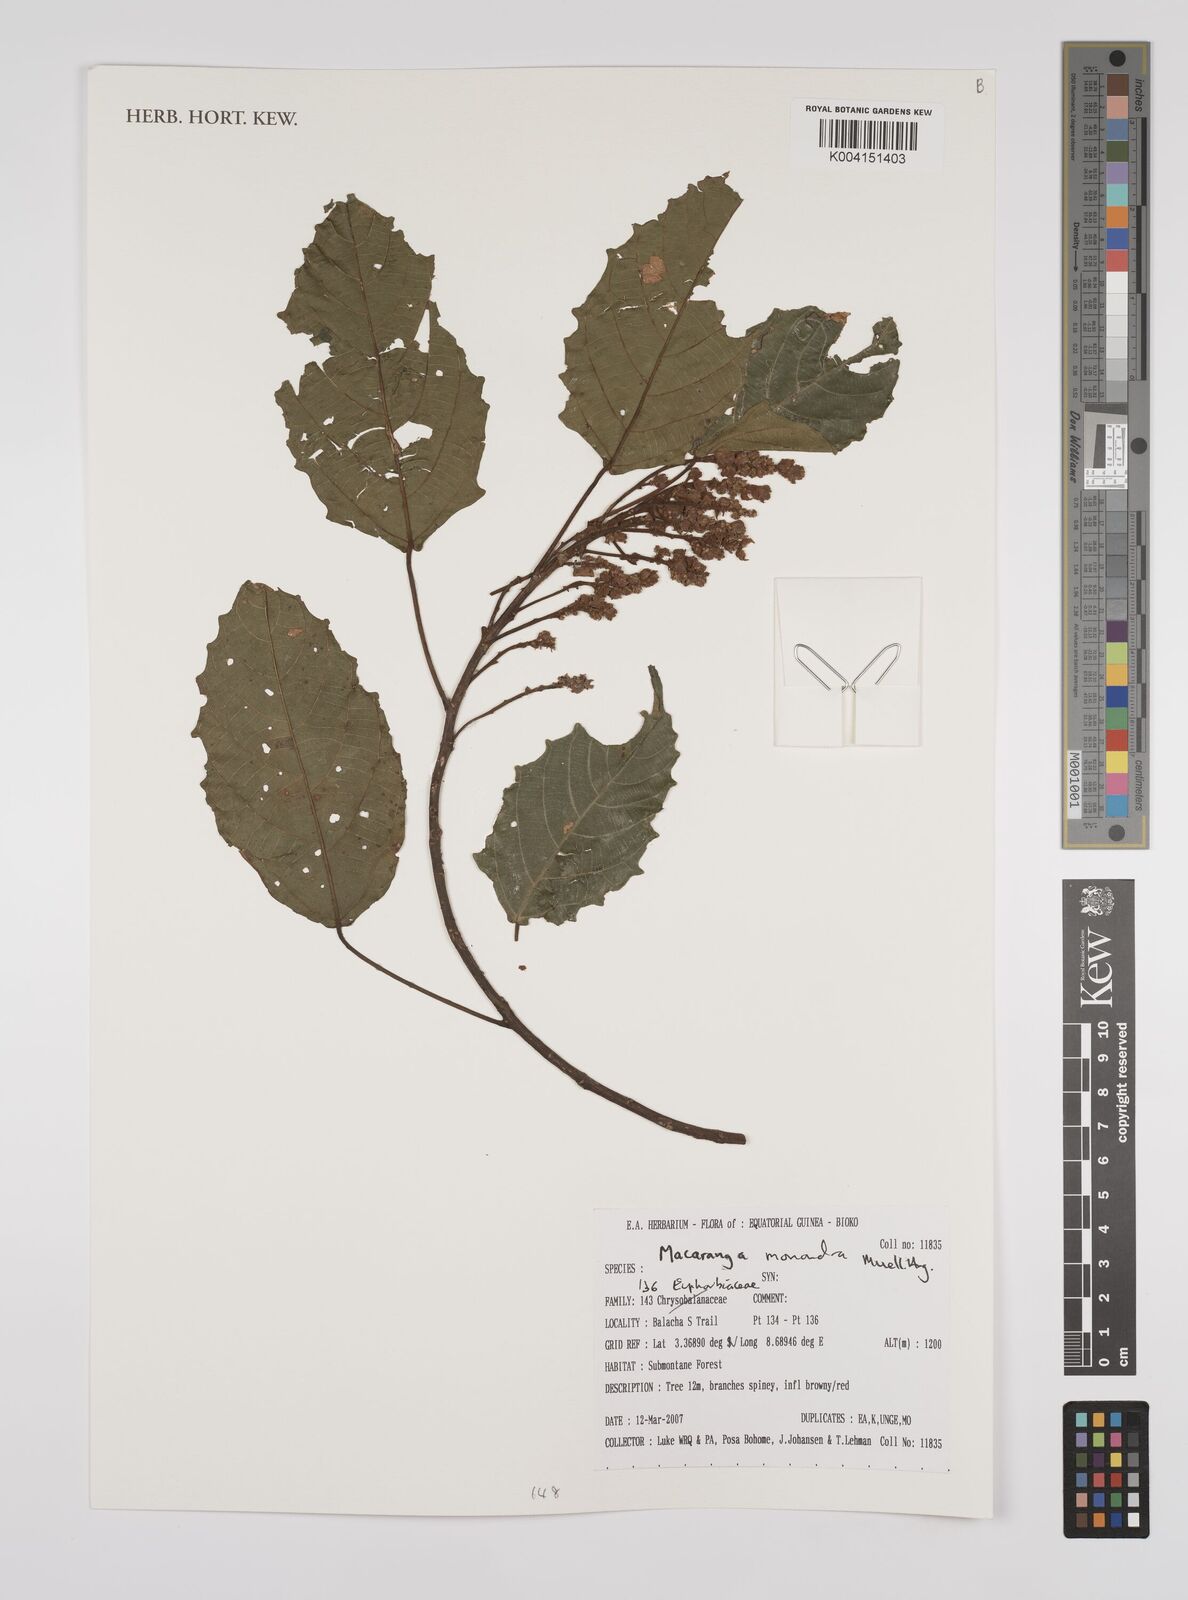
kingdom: Plantae
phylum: Tracheophyta
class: Magnoliopsida
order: Malpighiales
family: Euphorbiaceae
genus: Macaranga
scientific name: Macaranga monandra
